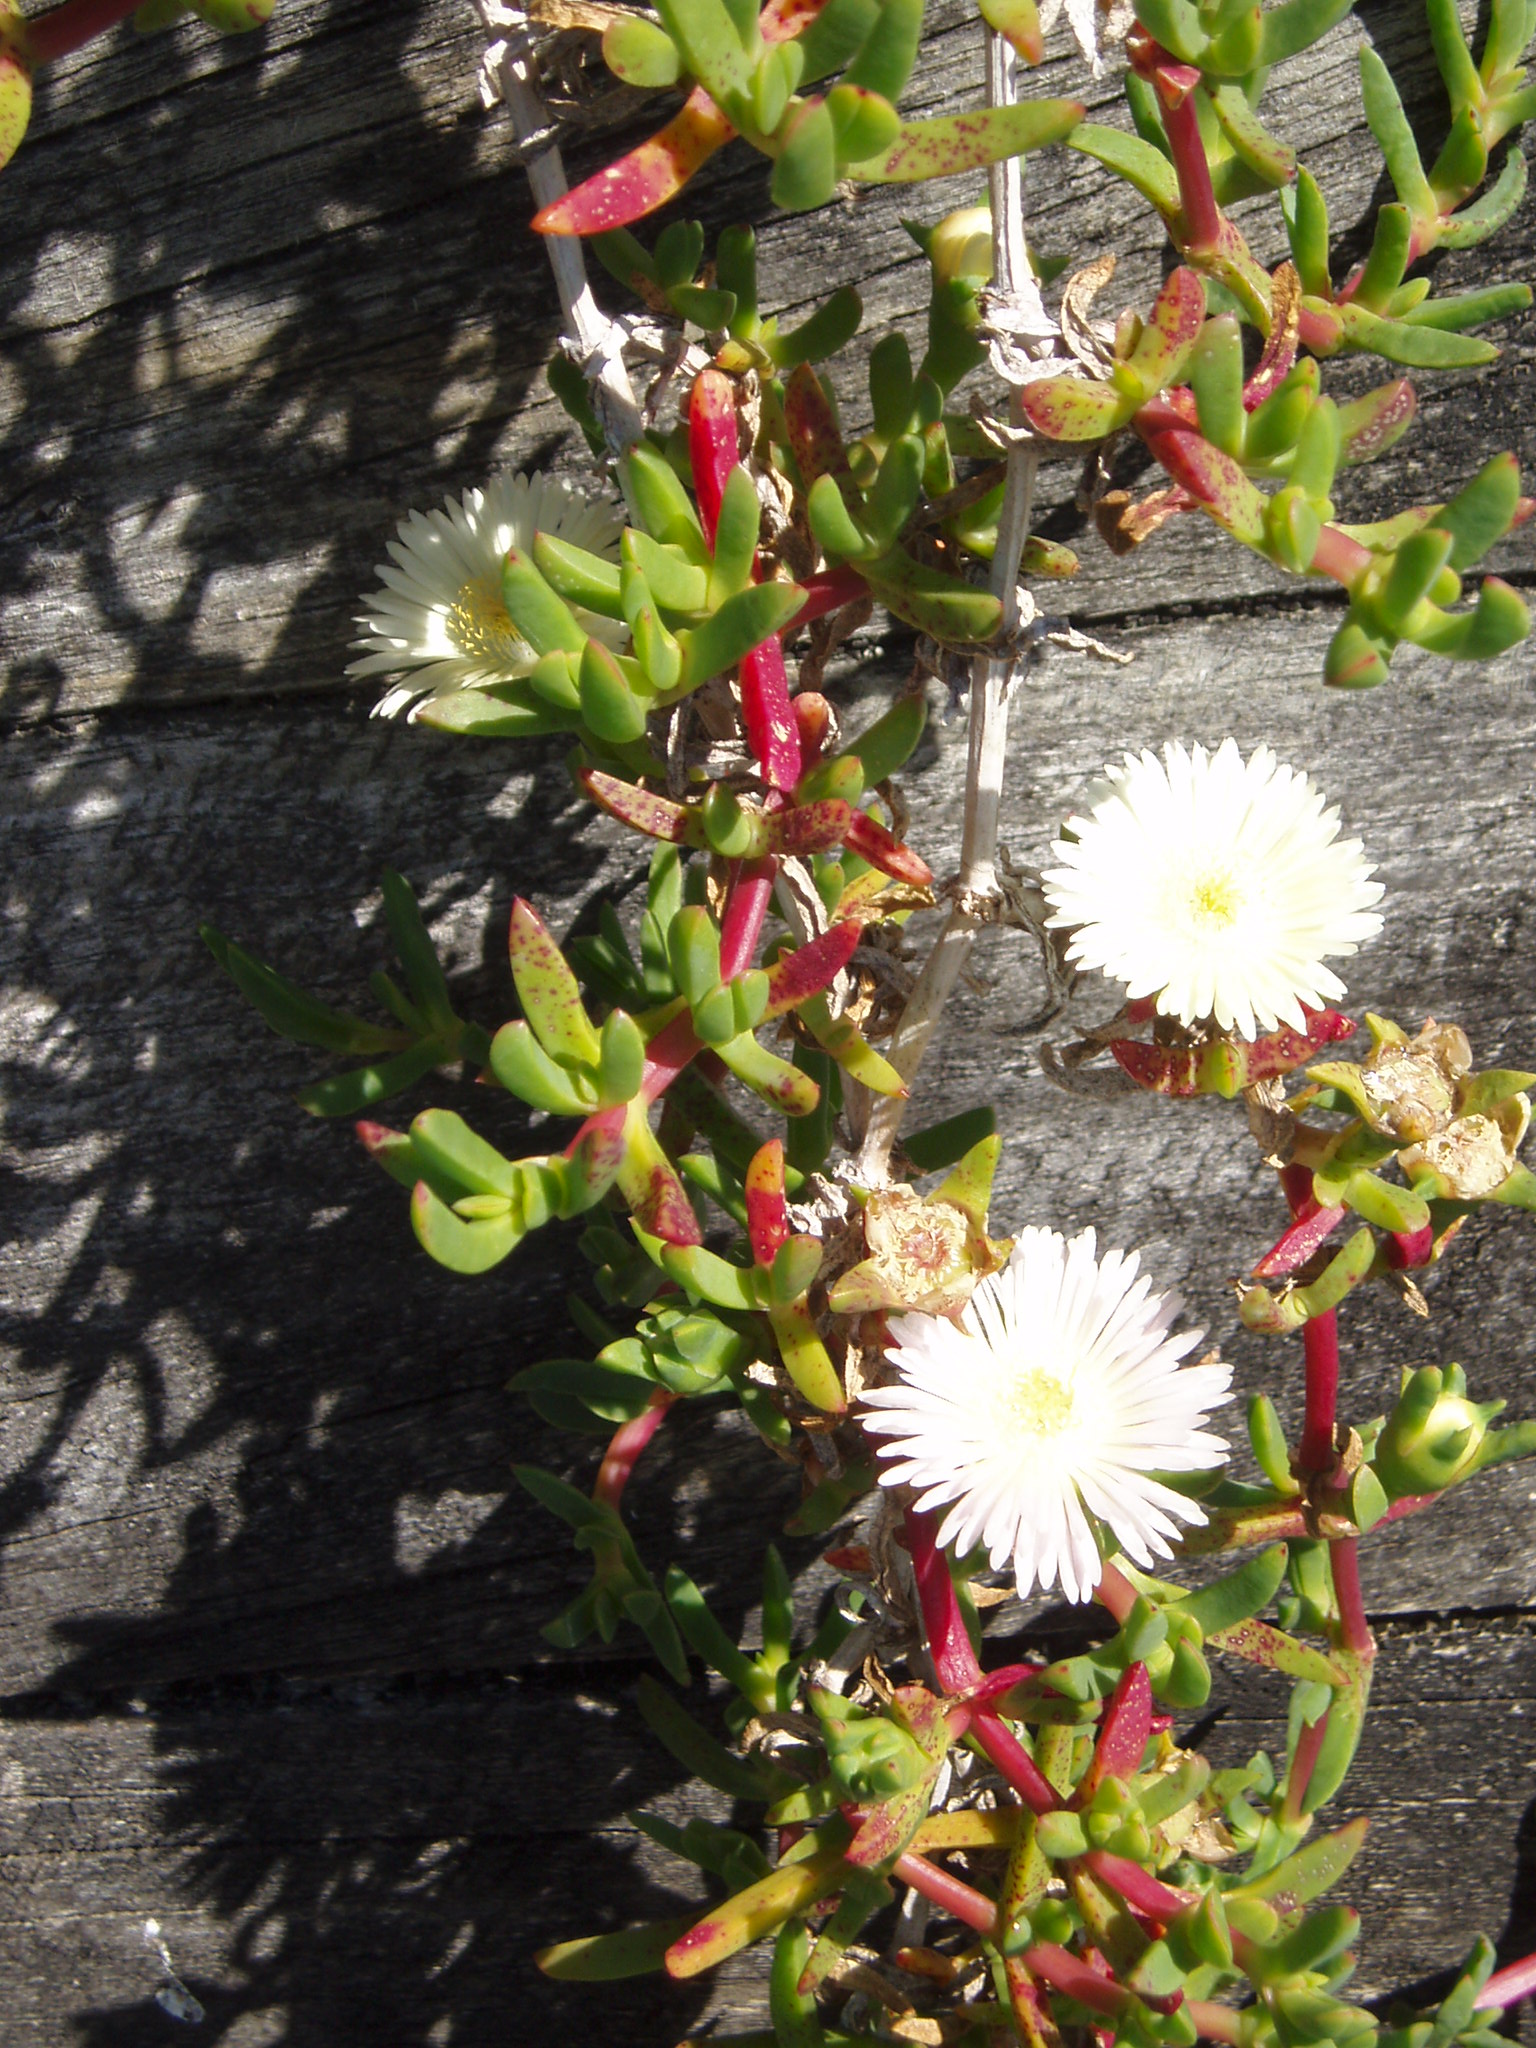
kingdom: Plantae
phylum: Tracheophyta
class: Magnoliopsida
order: Caryophyllales
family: Aizoaceae
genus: Disphyma
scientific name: Disphyma australe
